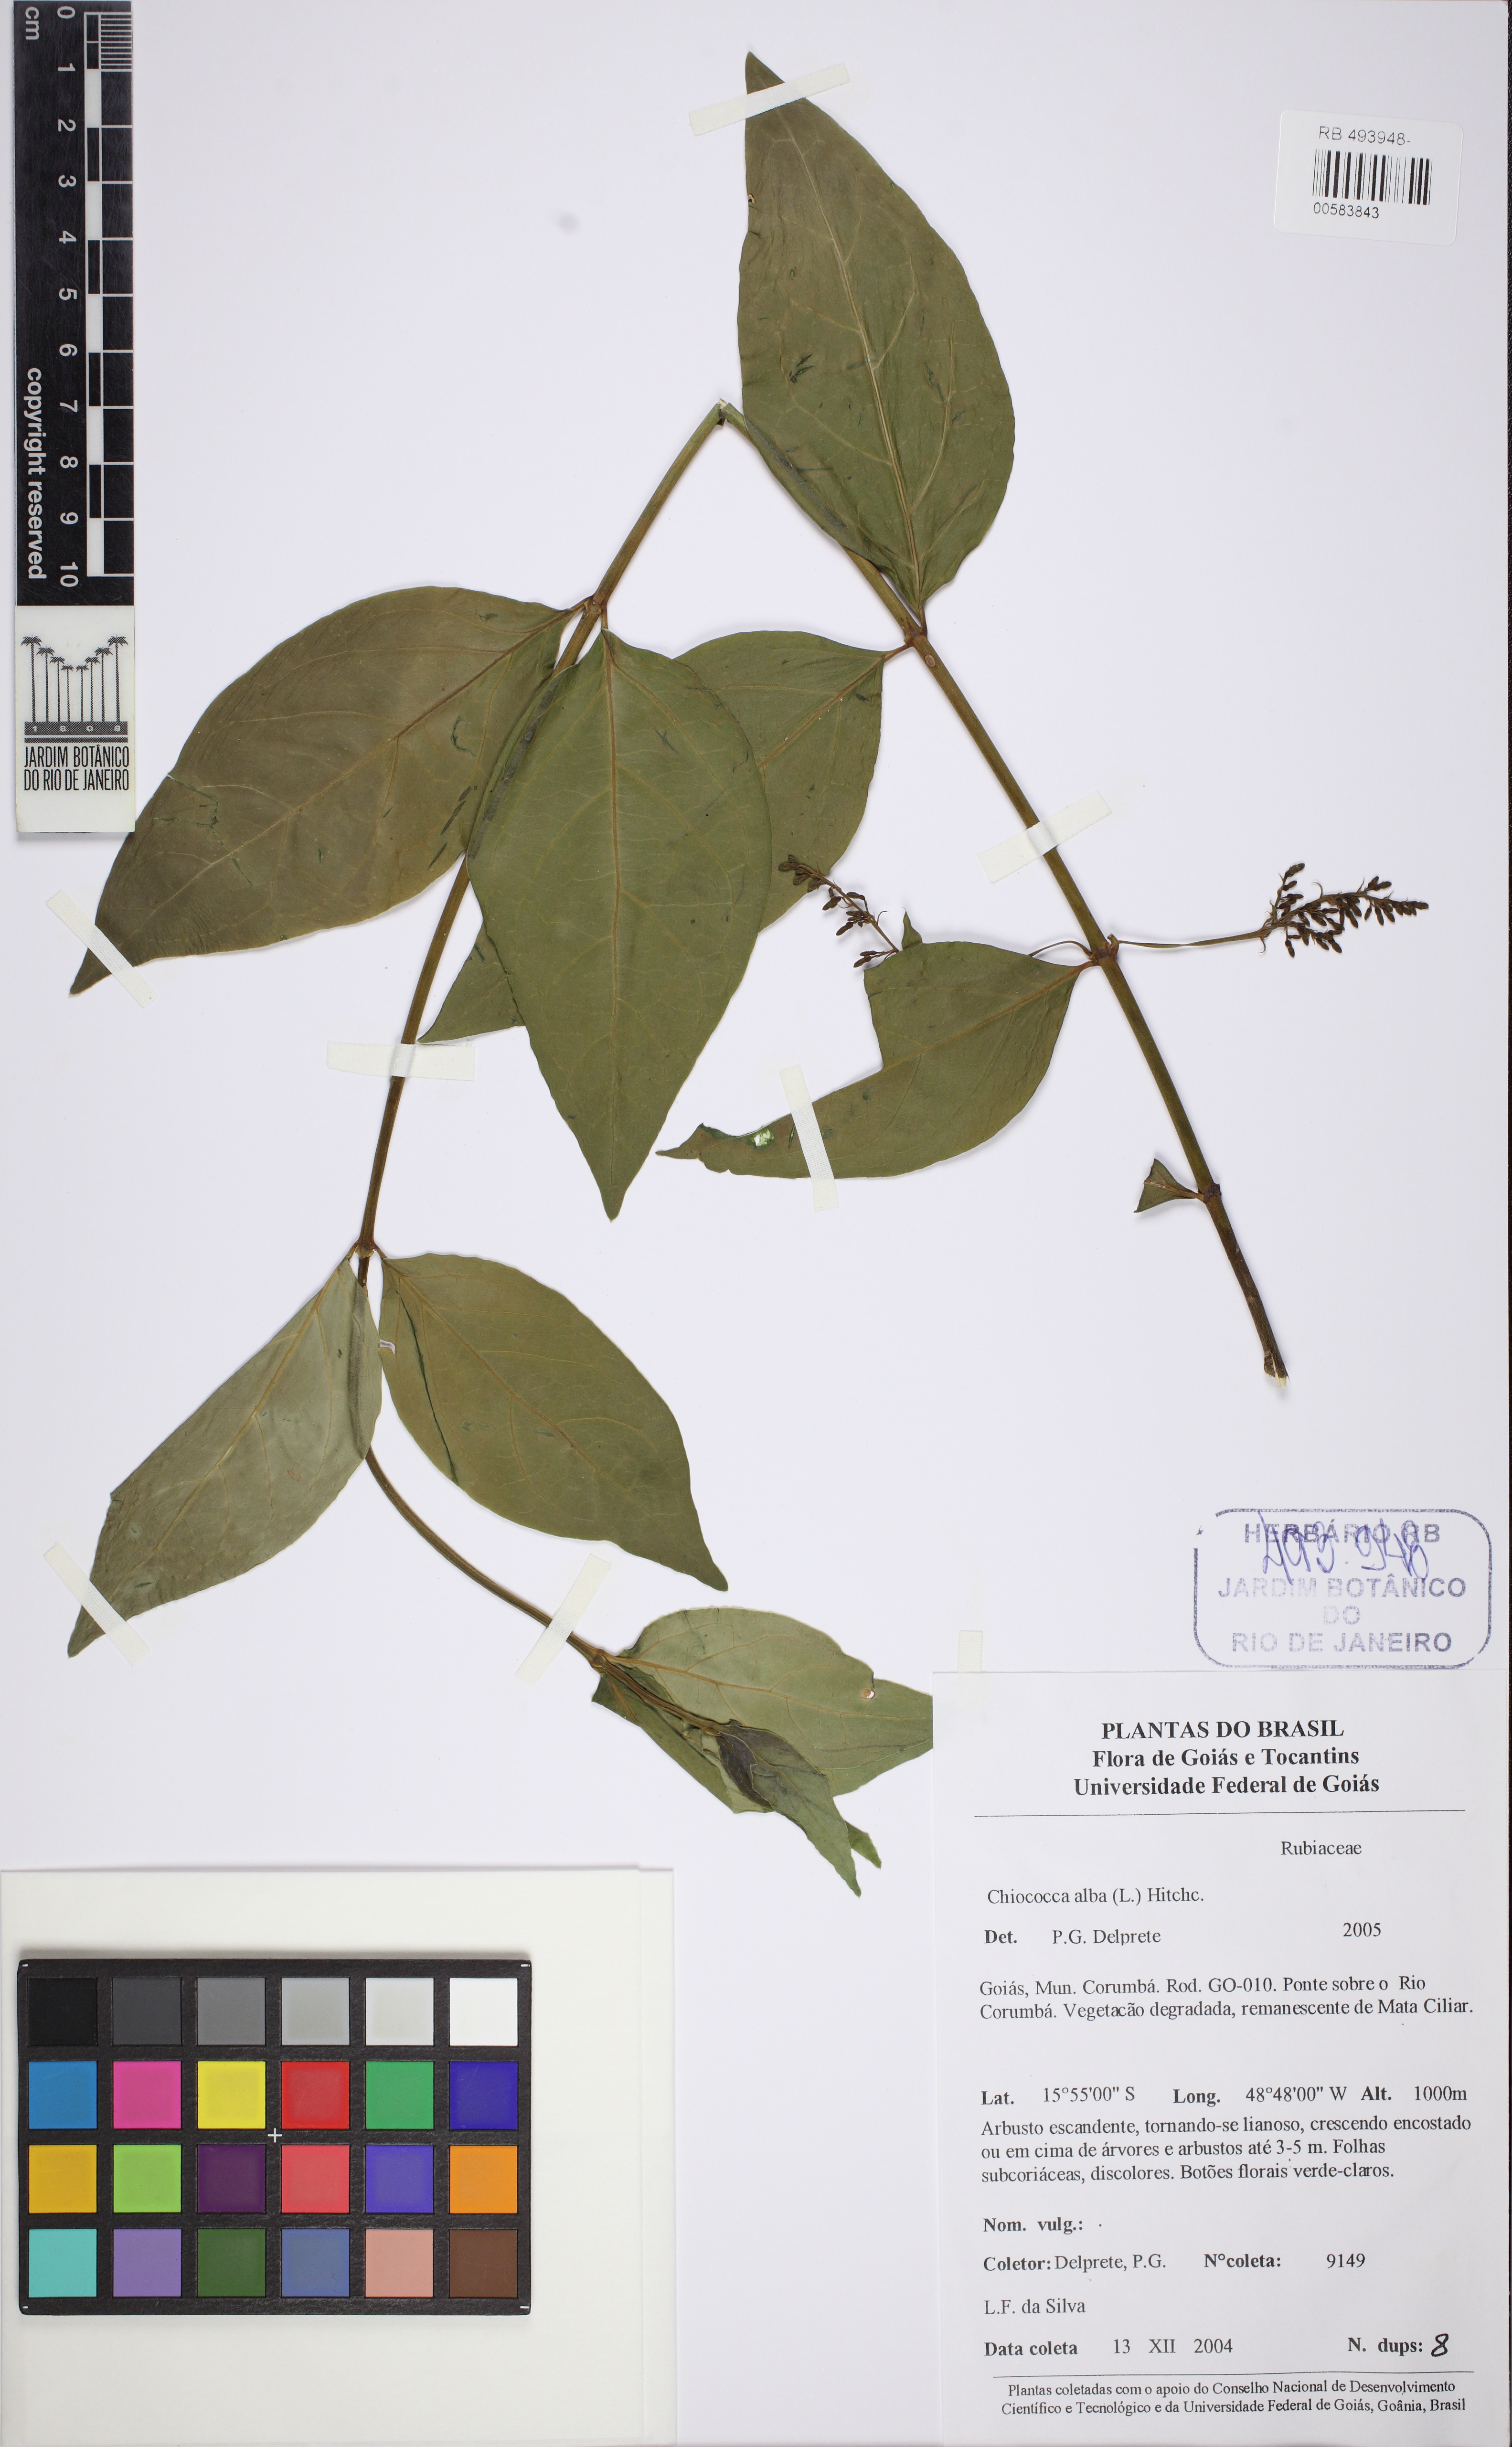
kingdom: Plantae
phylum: Tracheophyta
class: Magnoliopsida
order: Gentianales
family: Rubiaceae
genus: Chiococca
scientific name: Chiococca alba
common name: Snowberry
